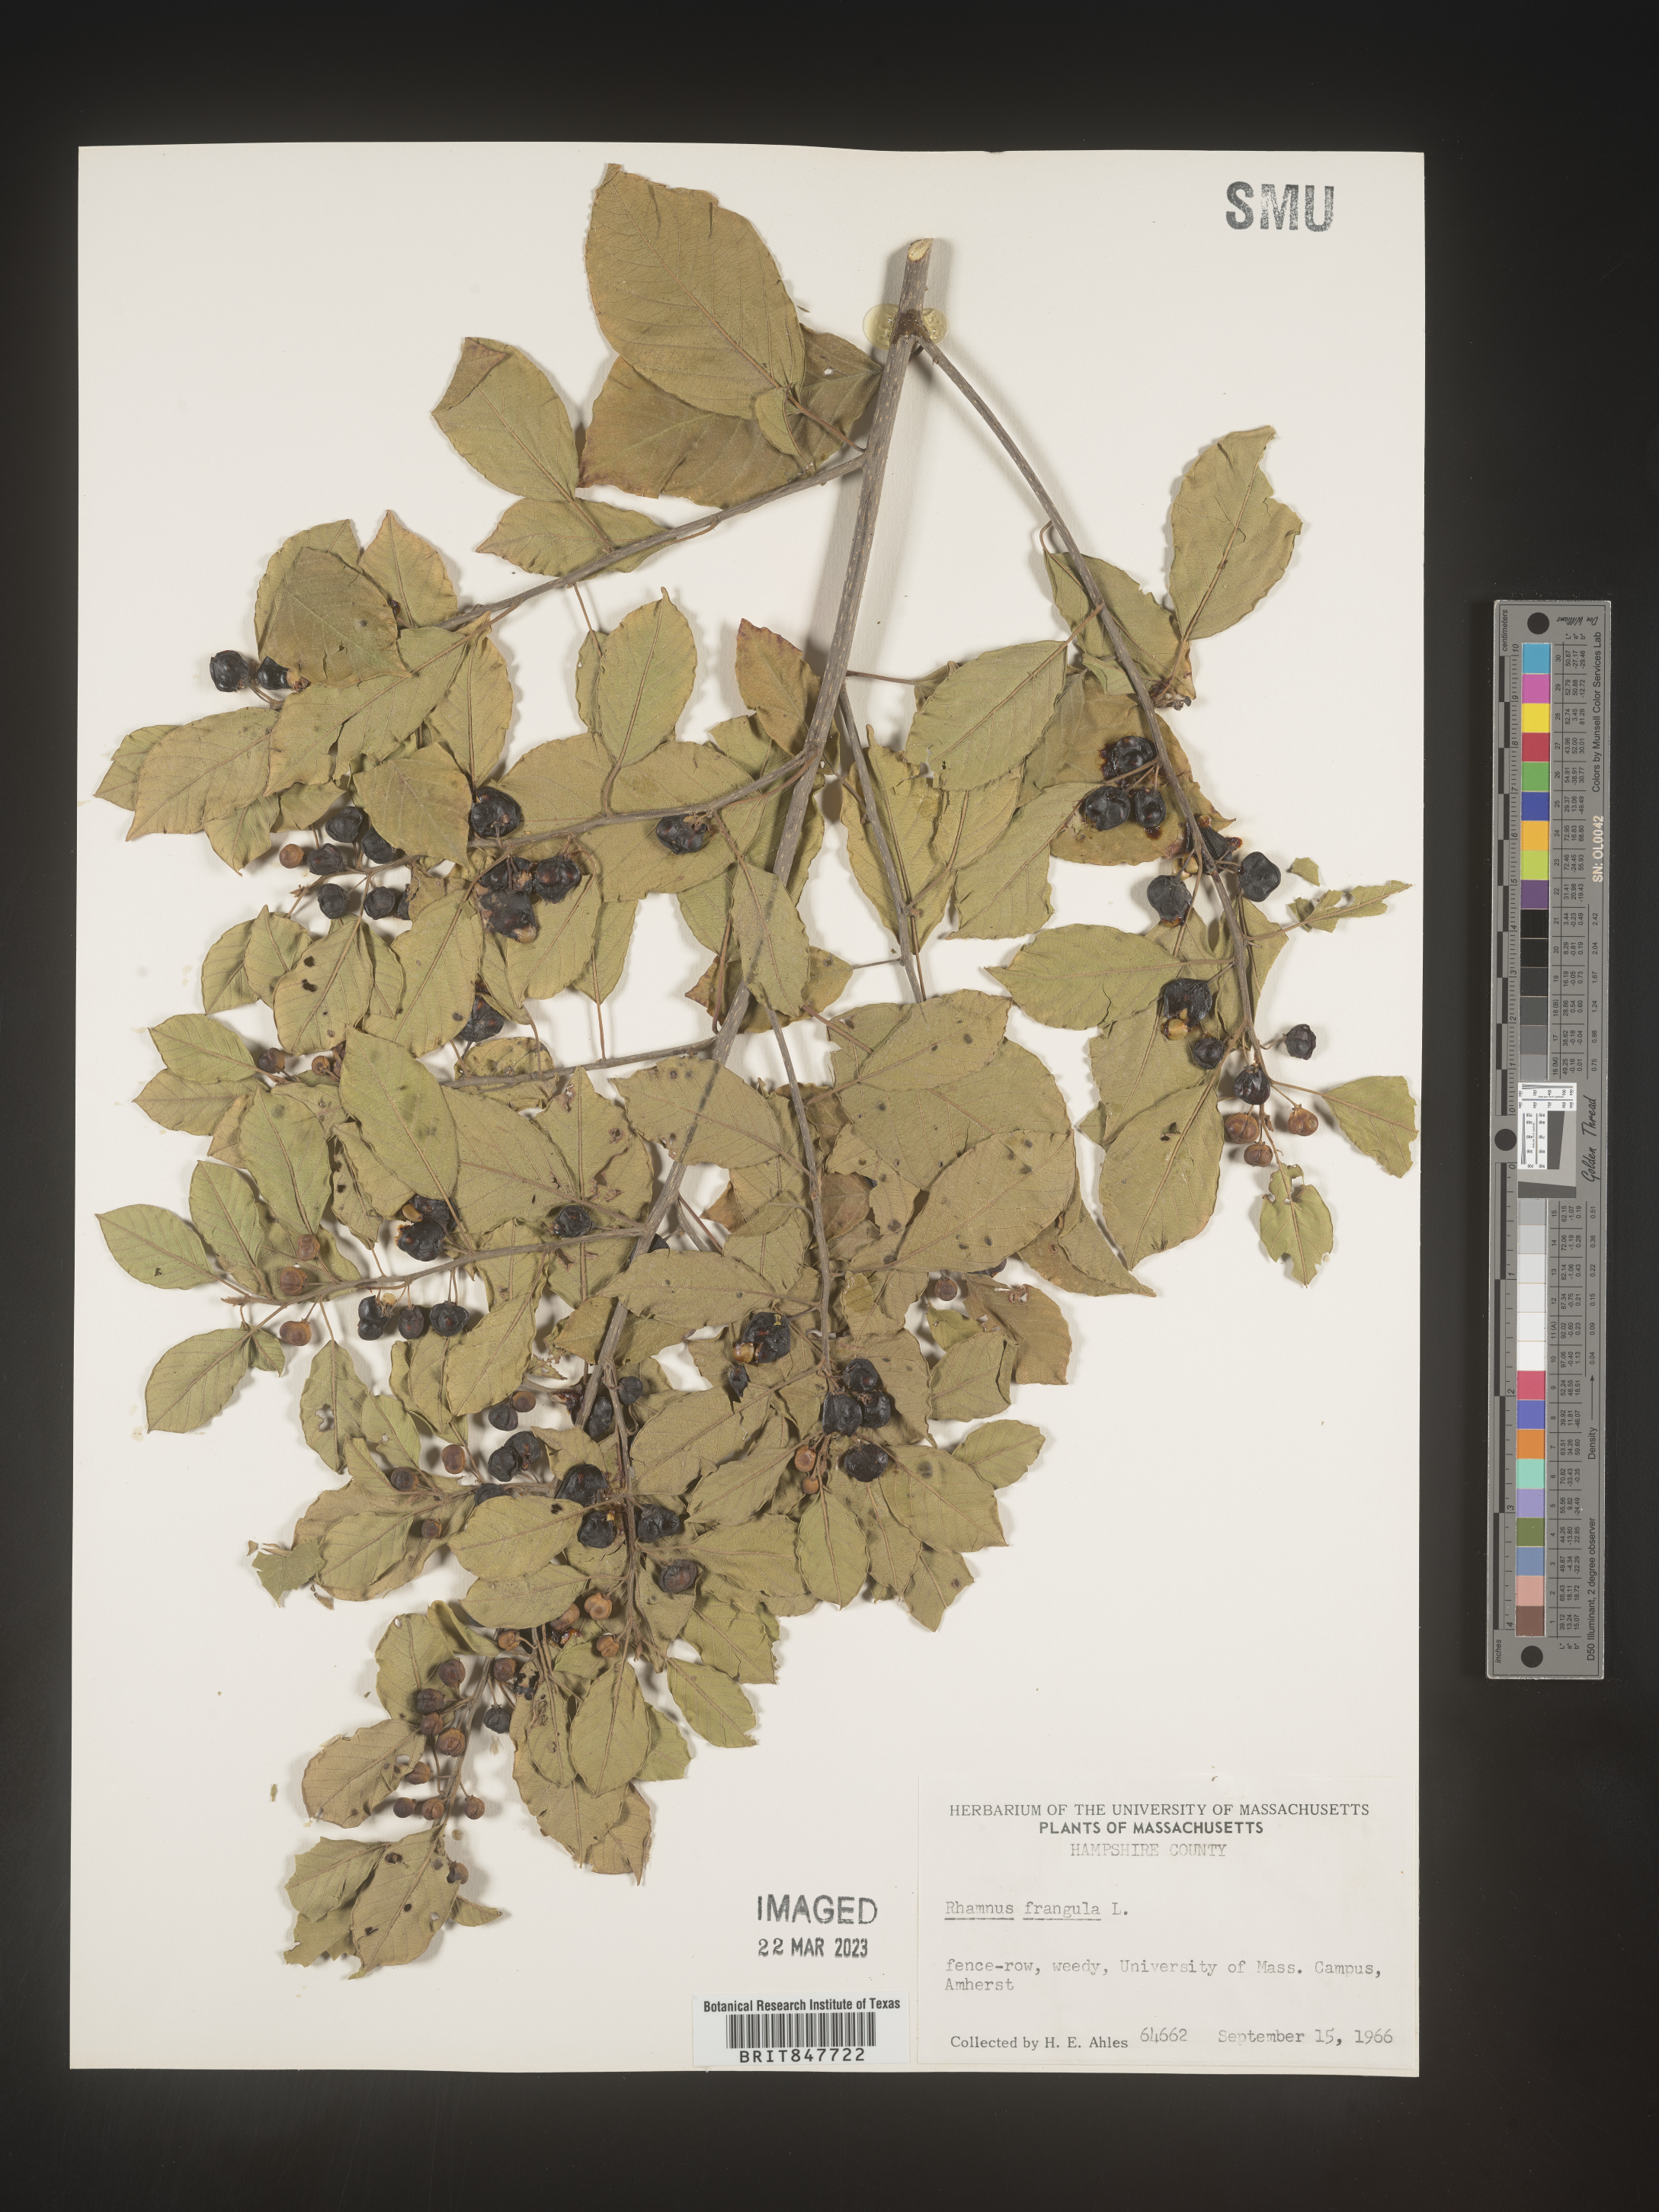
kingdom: Plantae
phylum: Tracheophyta
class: Magnoliopsida
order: Rosales
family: Rhamnaceae
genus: Frangula
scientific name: Frangula alnus
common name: Alder buckthorn
